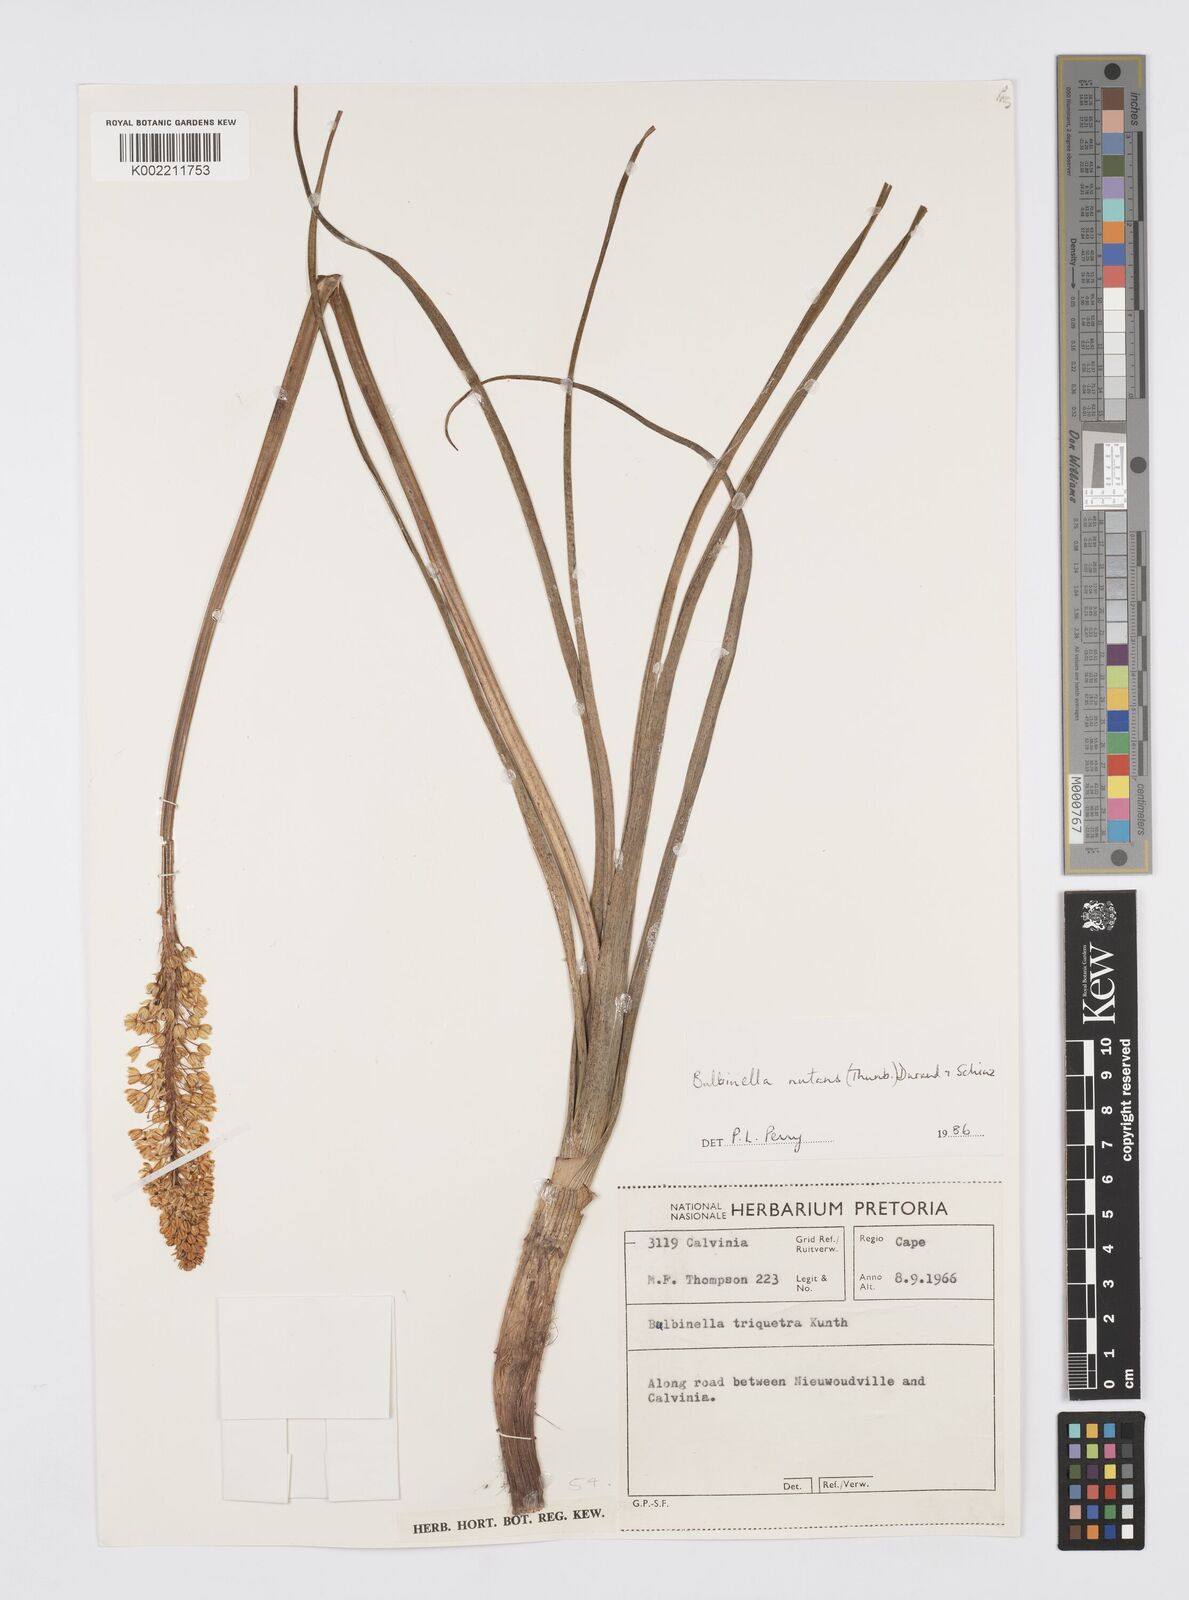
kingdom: Plantae
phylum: Tracheophyta
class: Liliopsida
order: Asparagales
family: Asphodelaceae
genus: Bulbinella
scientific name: Bulbinella nutans
